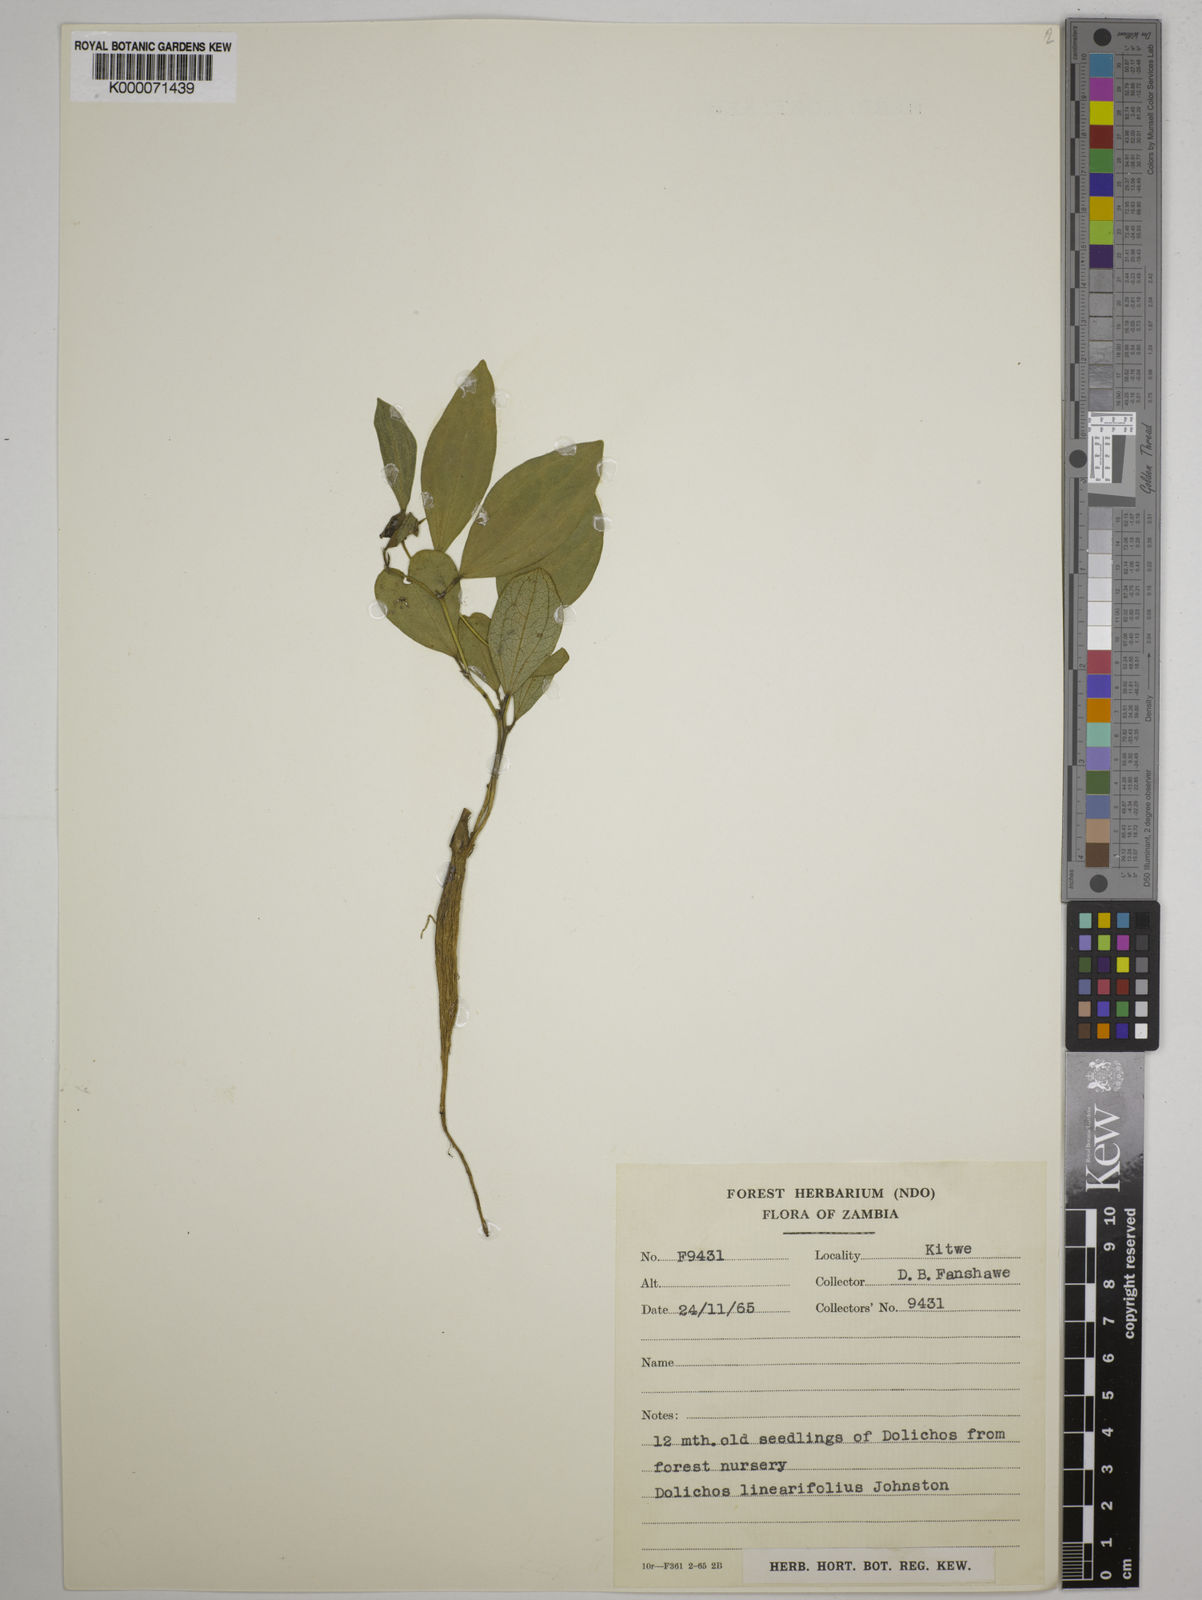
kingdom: Plantae
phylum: Tracheophyta
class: Magnoliopsida
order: Fabales
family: Fabaceae
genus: Dolichos
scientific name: Dolichos linearifolius
